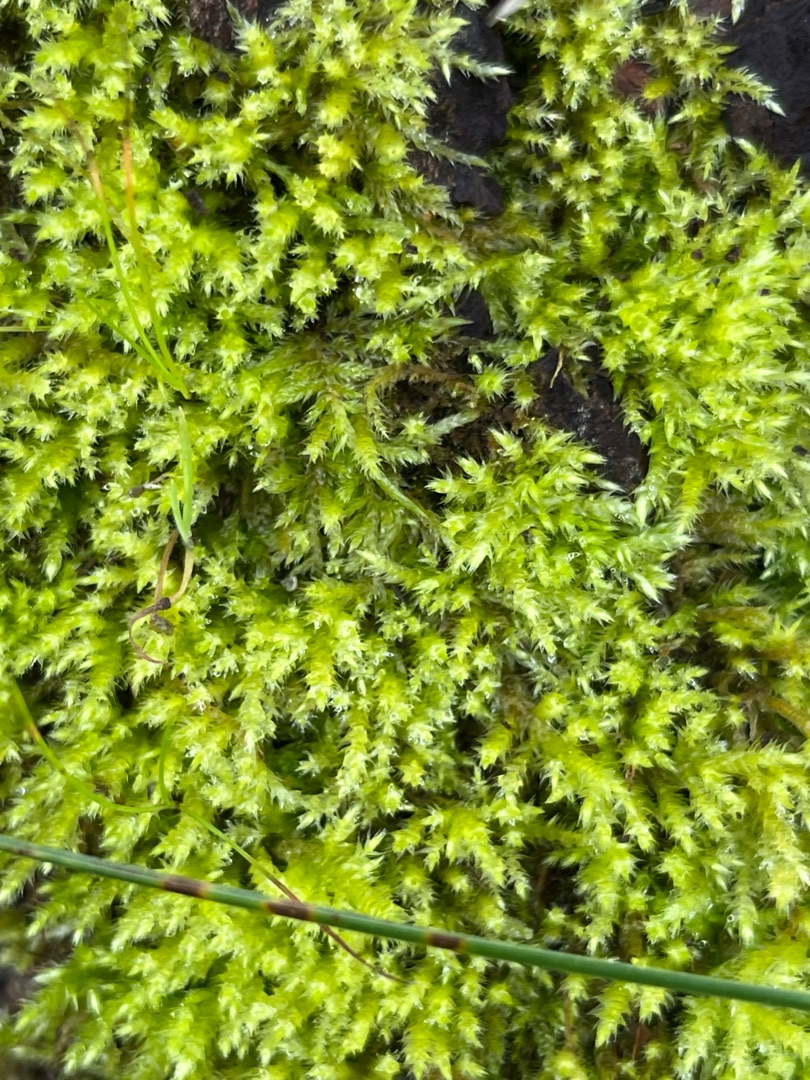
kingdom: Plantae
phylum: Bryophyta
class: Bryopsida
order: Hypnales
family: Brachytheciaceae
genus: Brachythecium
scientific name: Brachythecium
